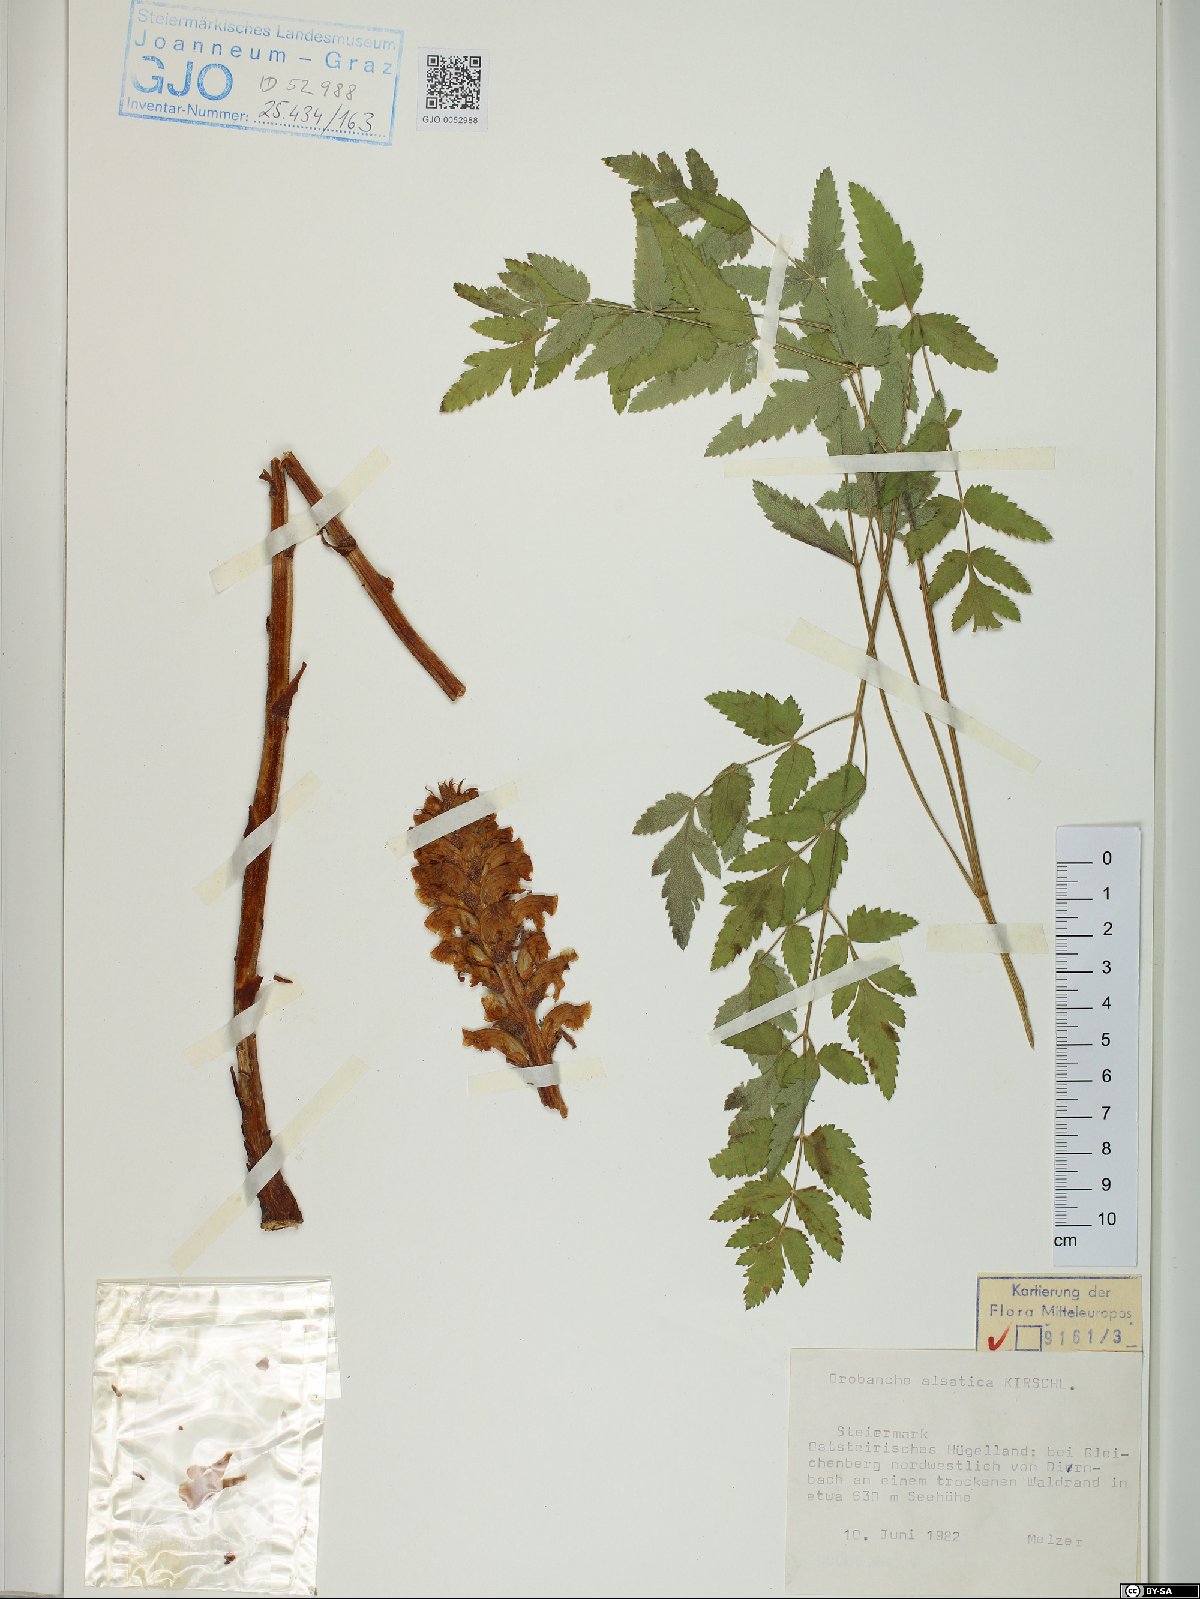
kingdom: Plantae
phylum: Tracheophyta
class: Magnoliopsida
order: Lamiales
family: Orobanchaceae
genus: Orobanche
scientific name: Orobanche alsatica
